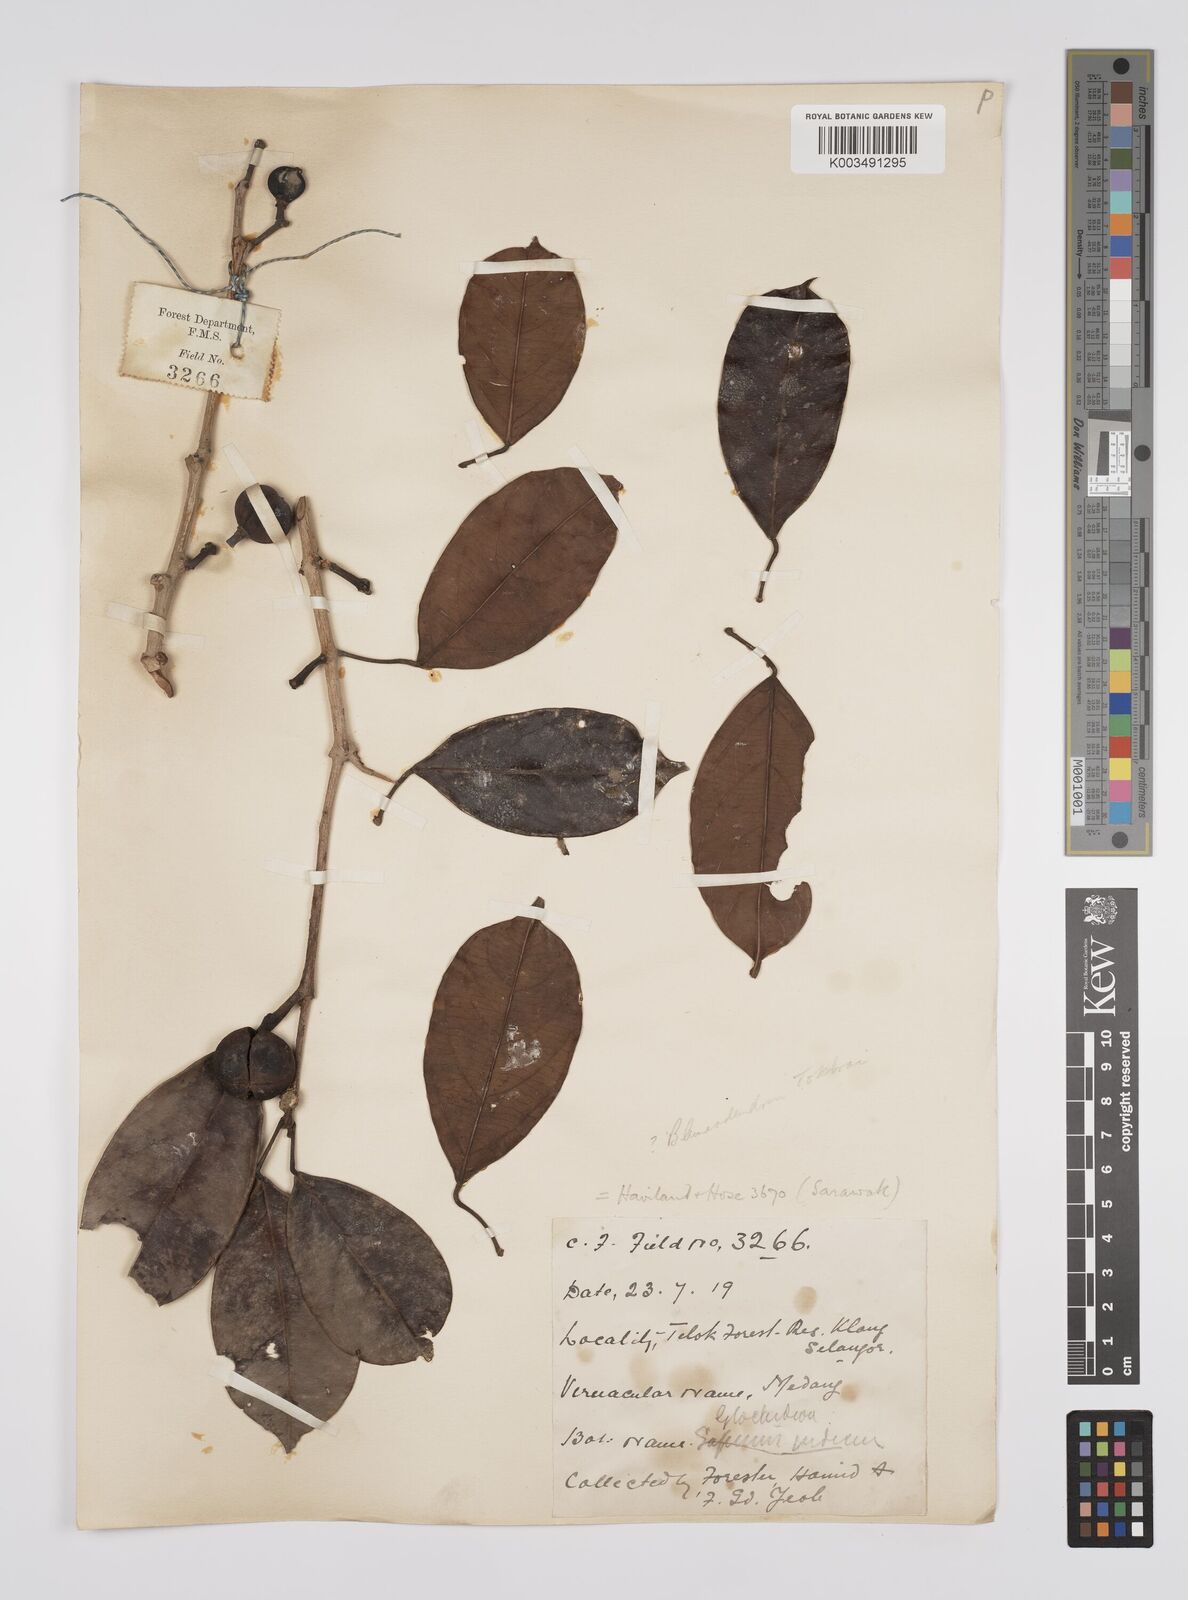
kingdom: Plantae
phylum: Tracheophyta
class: Magnoliopsida
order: Malpighiales
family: Euphorbiaceae
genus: Blumeodendron
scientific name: Blumeodendron tokbrai
